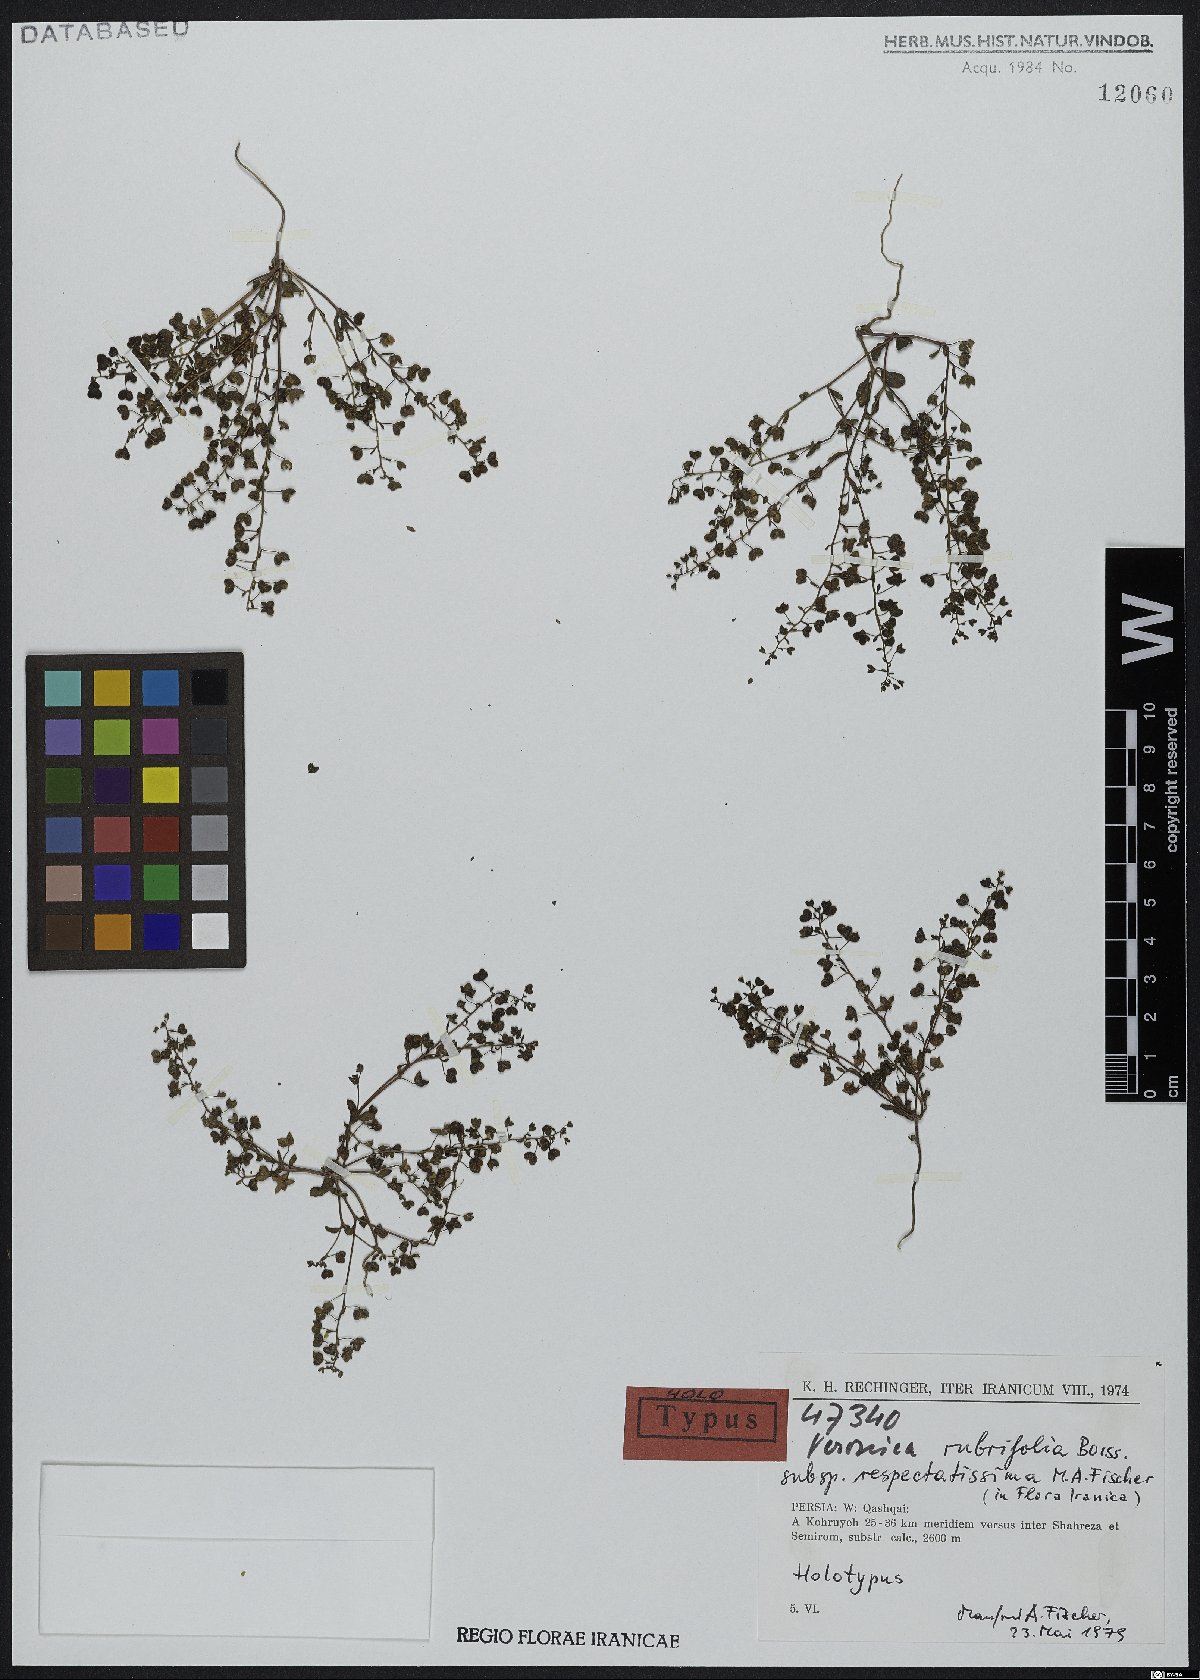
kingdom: Plantae
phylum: Tracheophyta
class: Magnoliopsida
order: Lamiales
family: Plantaginaceae
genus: Veronica
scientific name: Veronica rubrifolia
